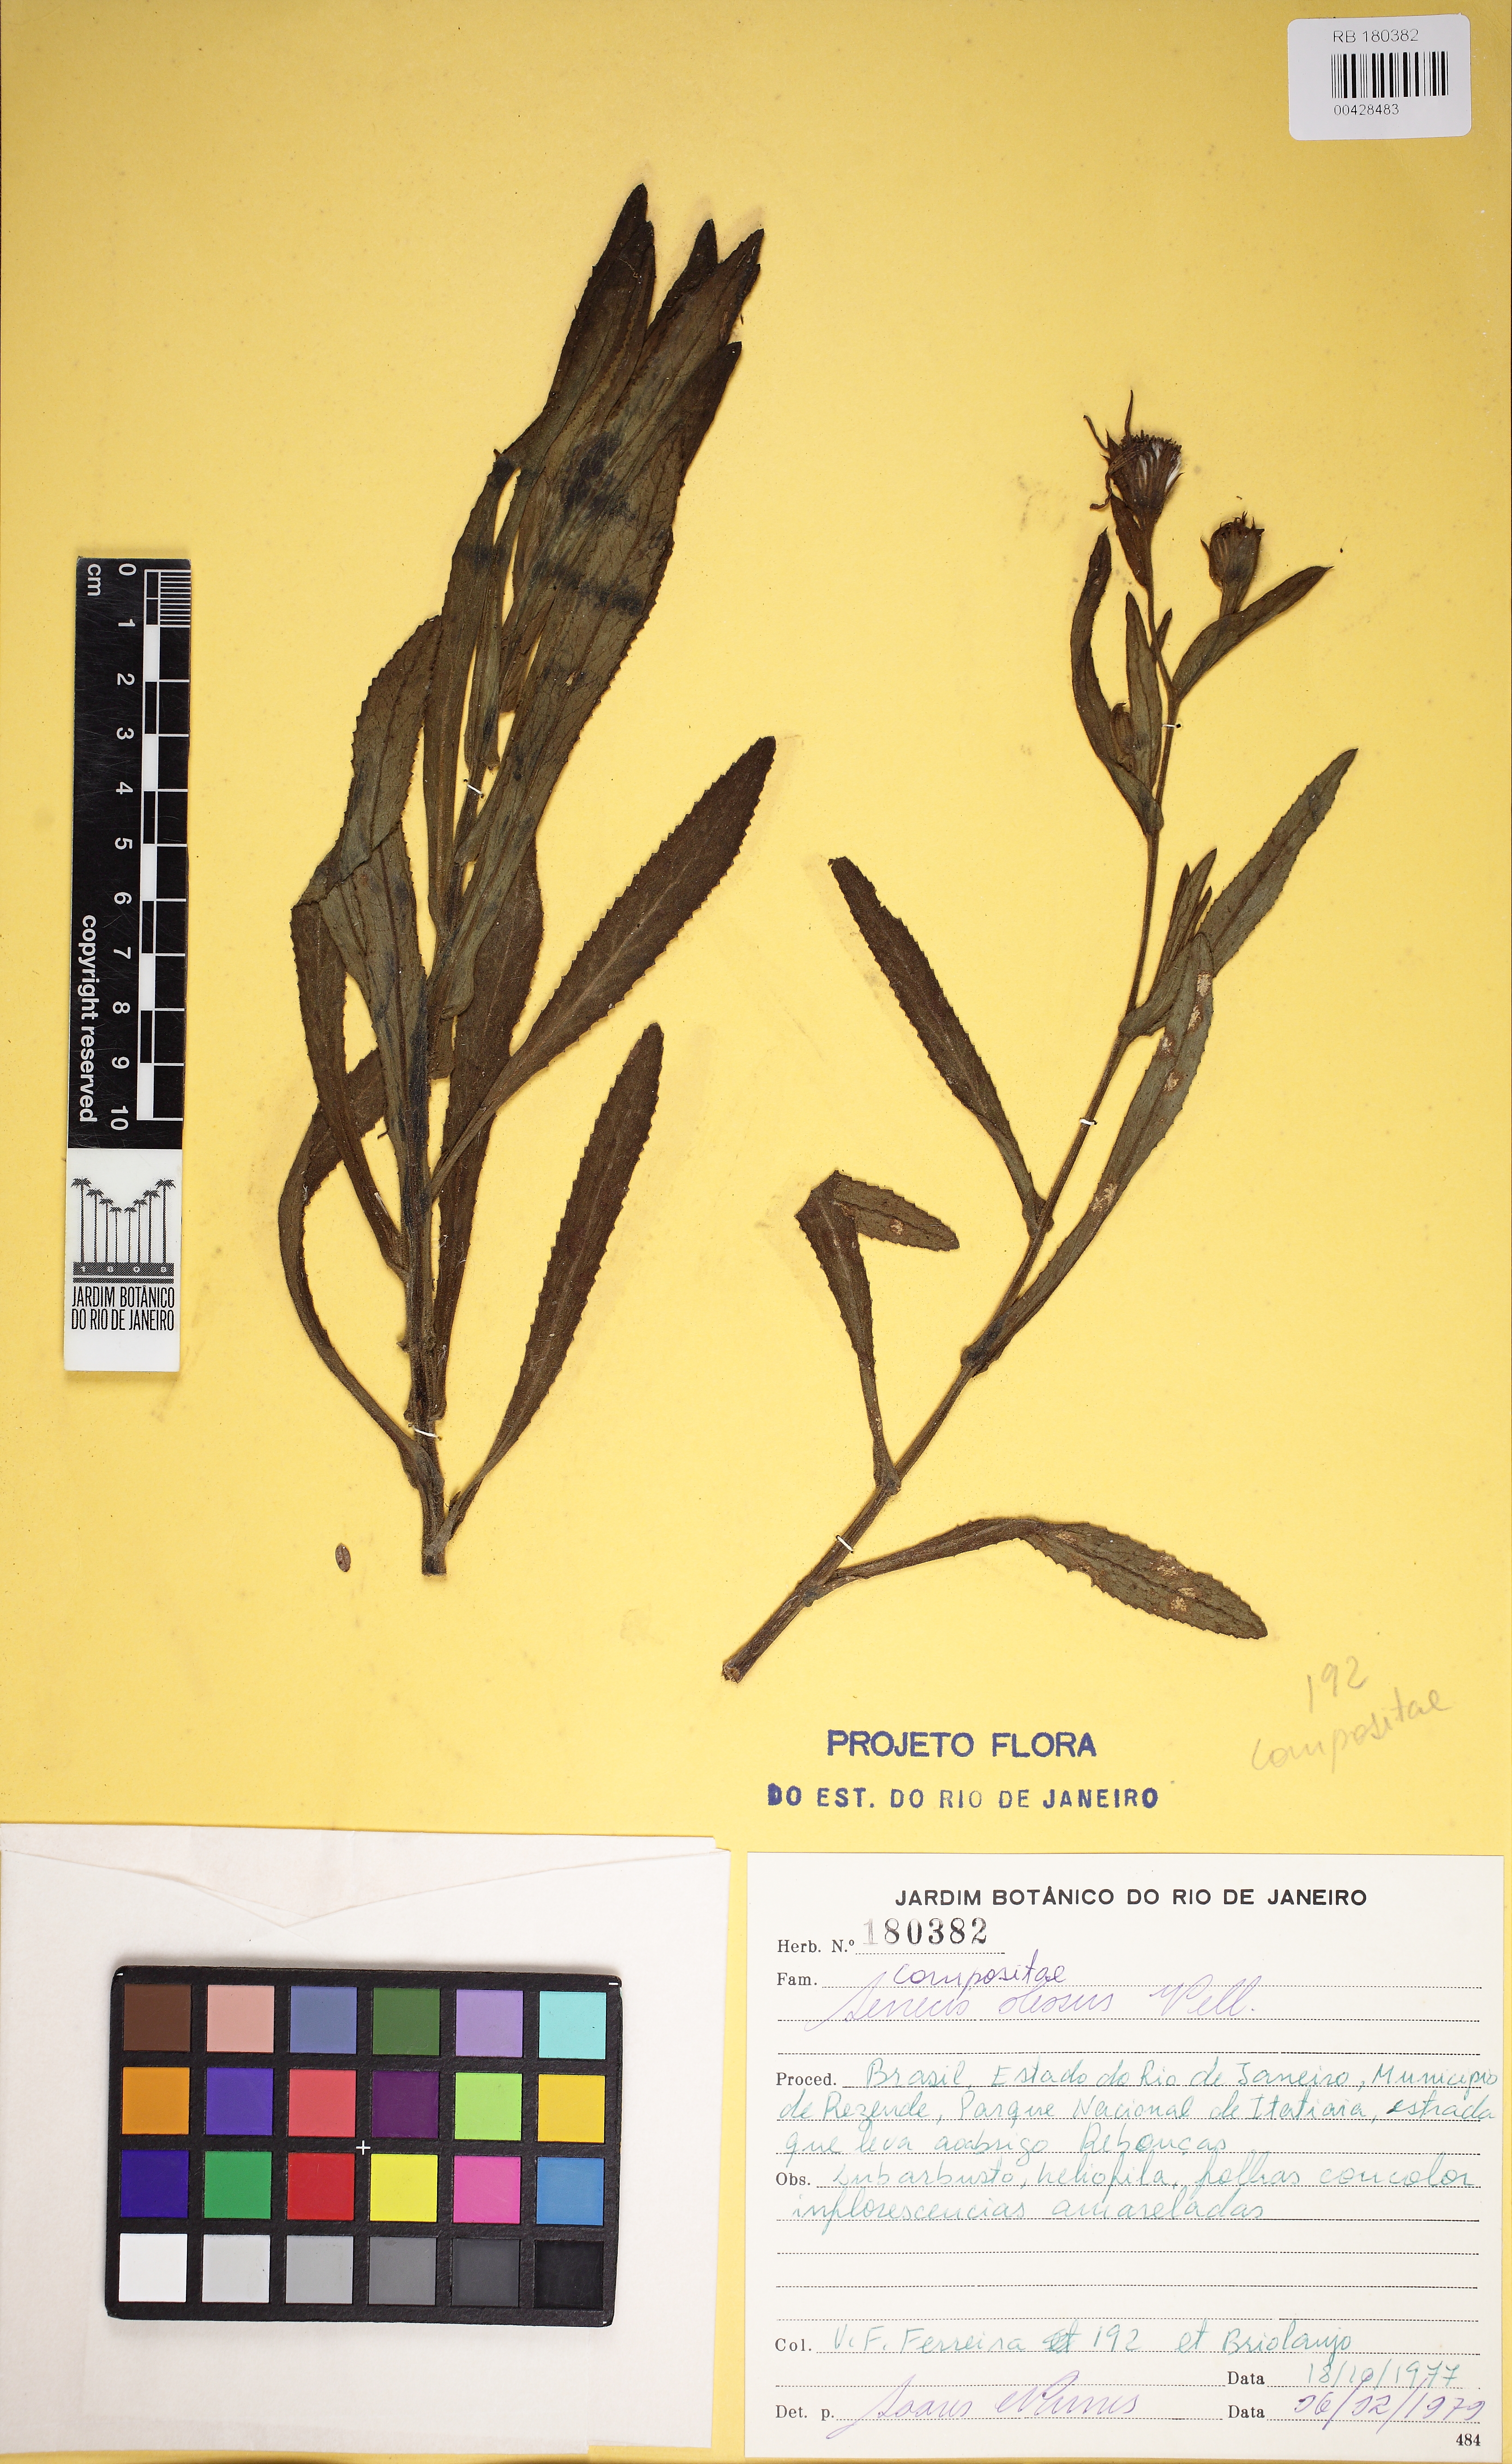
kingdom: Plantae
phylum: Tracheophyta
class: Magnoliopsida
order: Asterales
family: Asteraceae
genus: Senecio
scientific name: Senecio oleosus
